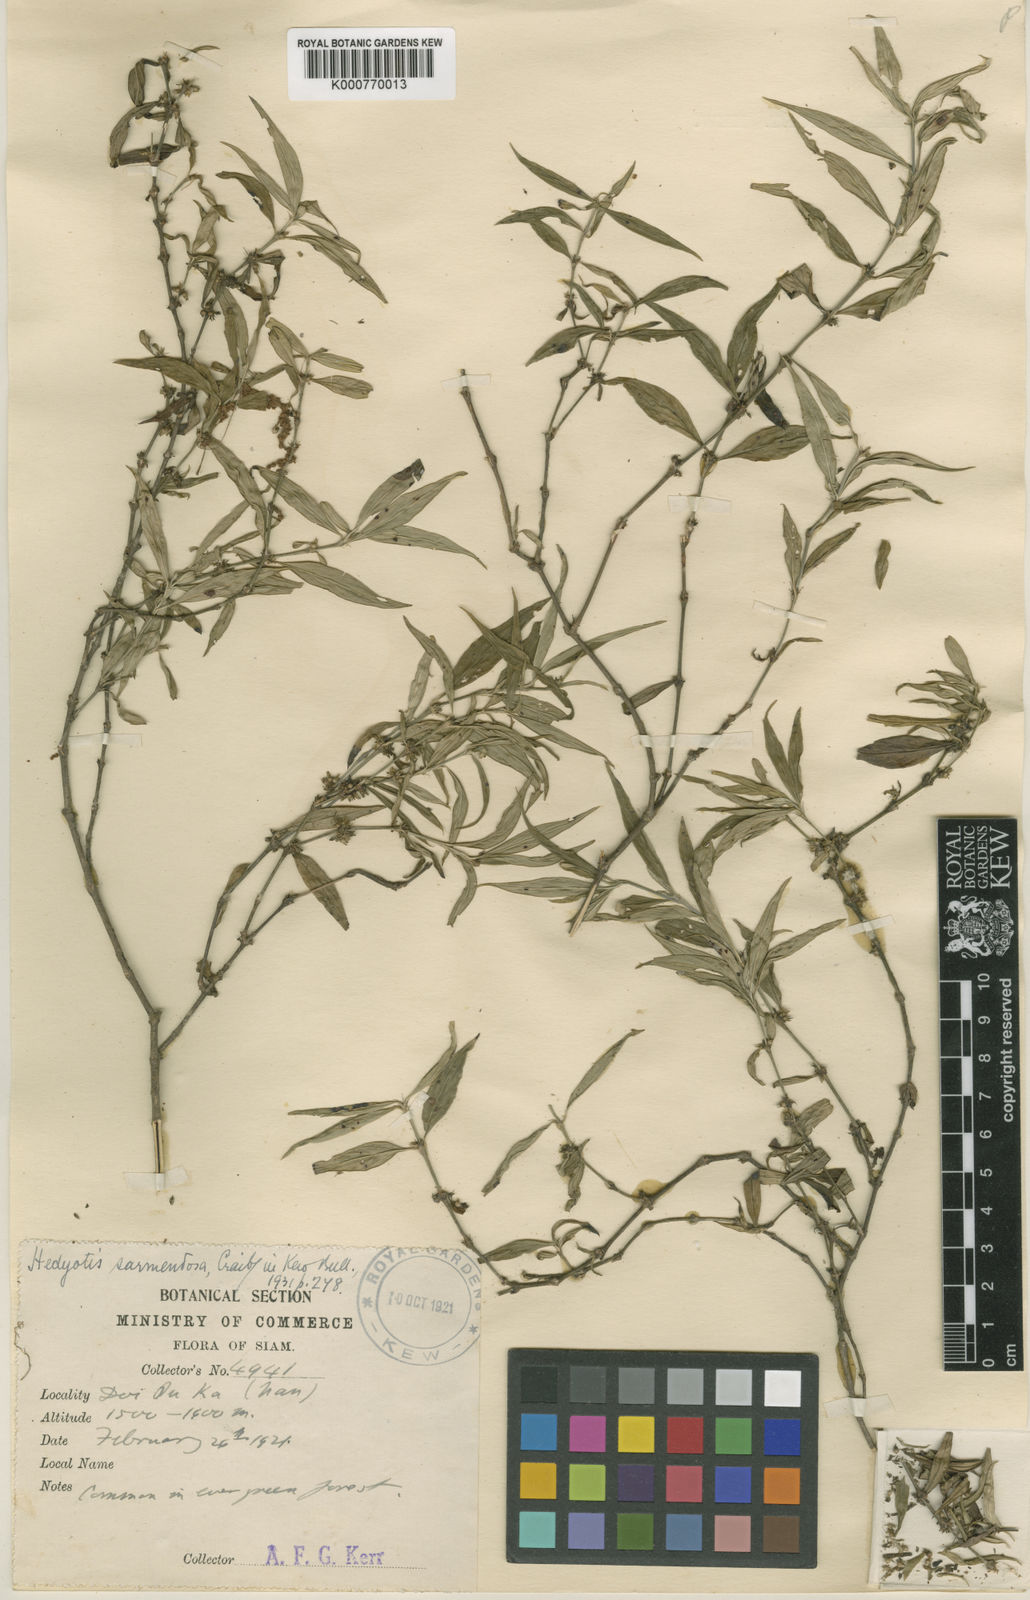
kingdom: Plantae
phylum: Tracheophyta
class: Magnoliopsida
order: Gentianales
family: Rubiaceae
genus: Exallage
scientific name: Exallage auricularia
